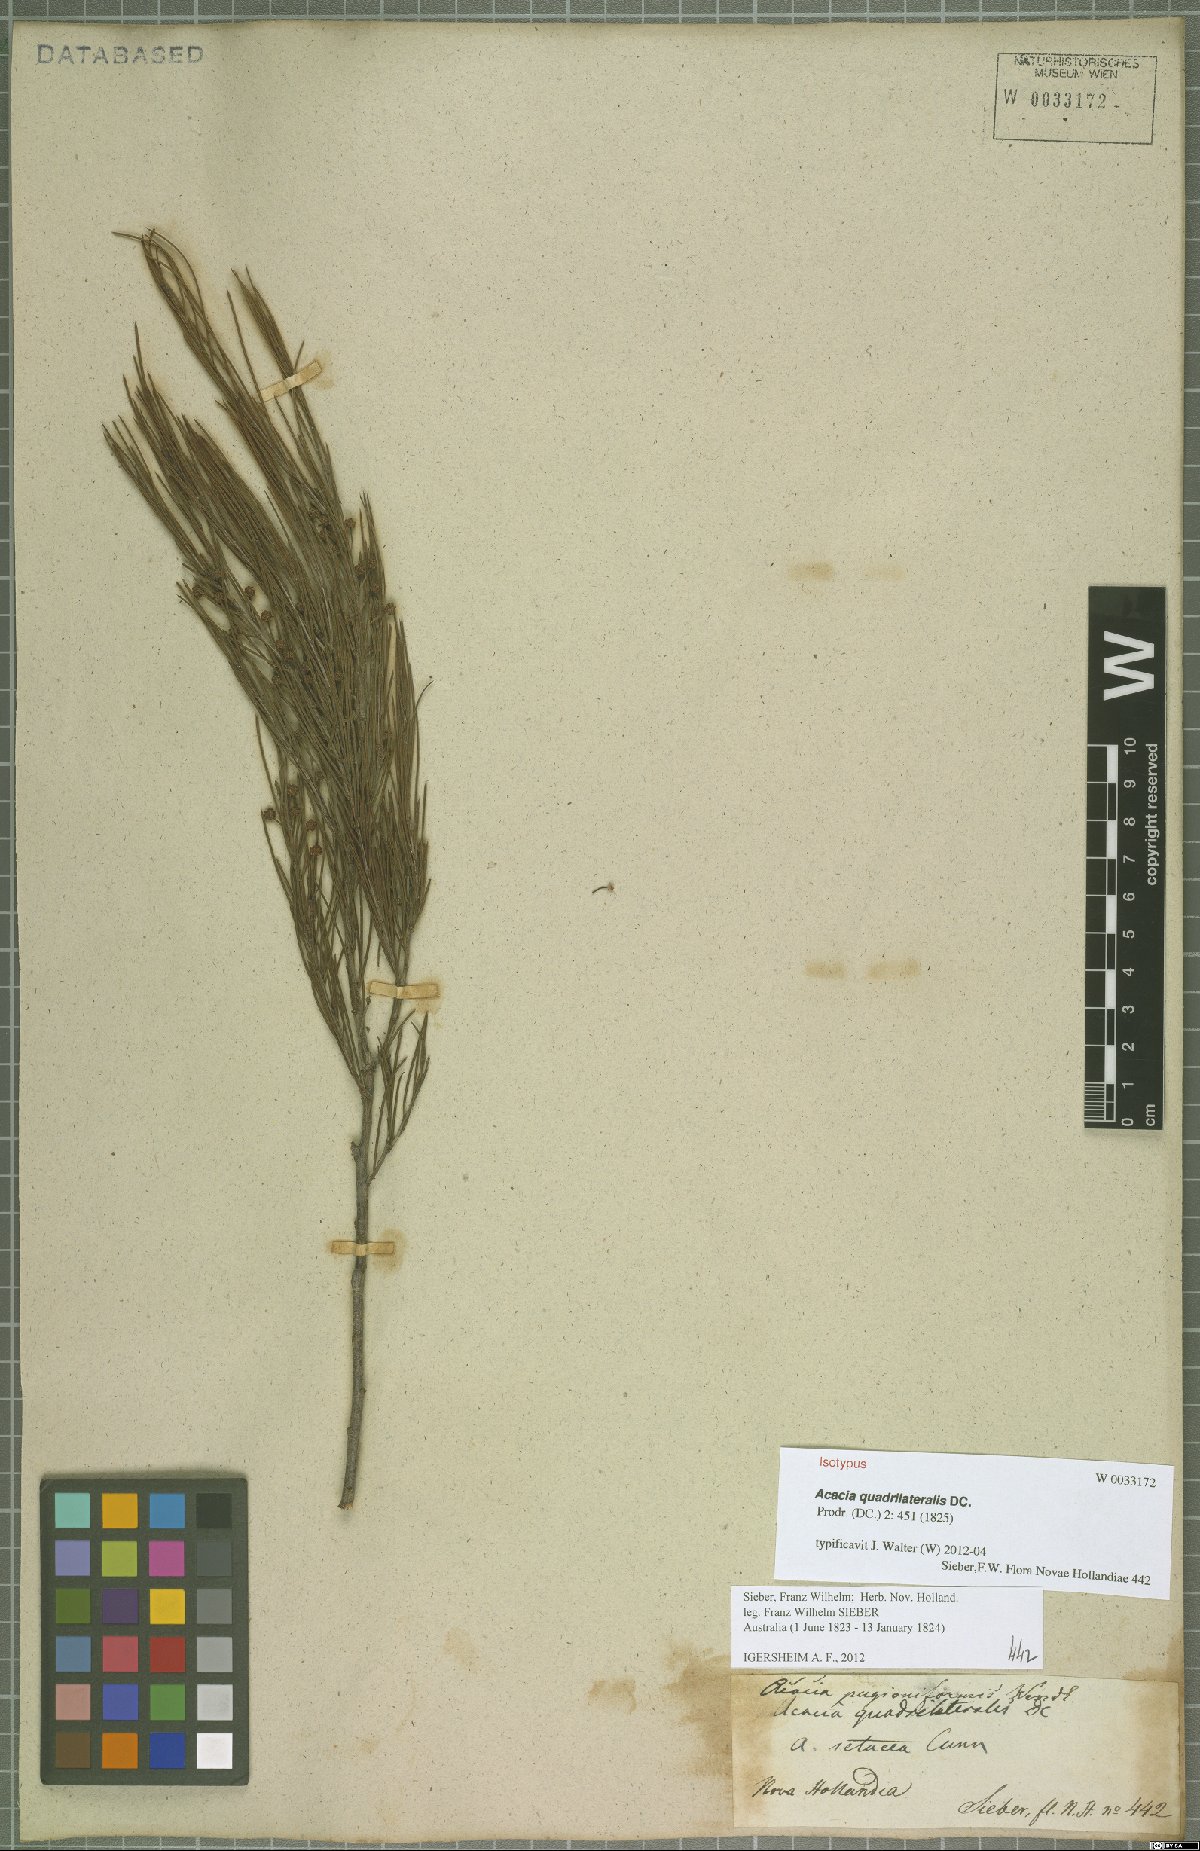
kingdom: Plantae
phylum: Tracheophyta
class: Magnoliopsida
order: Fabales
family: Fabaceae
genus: Acacia
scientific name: Acacia quadrilateralis
